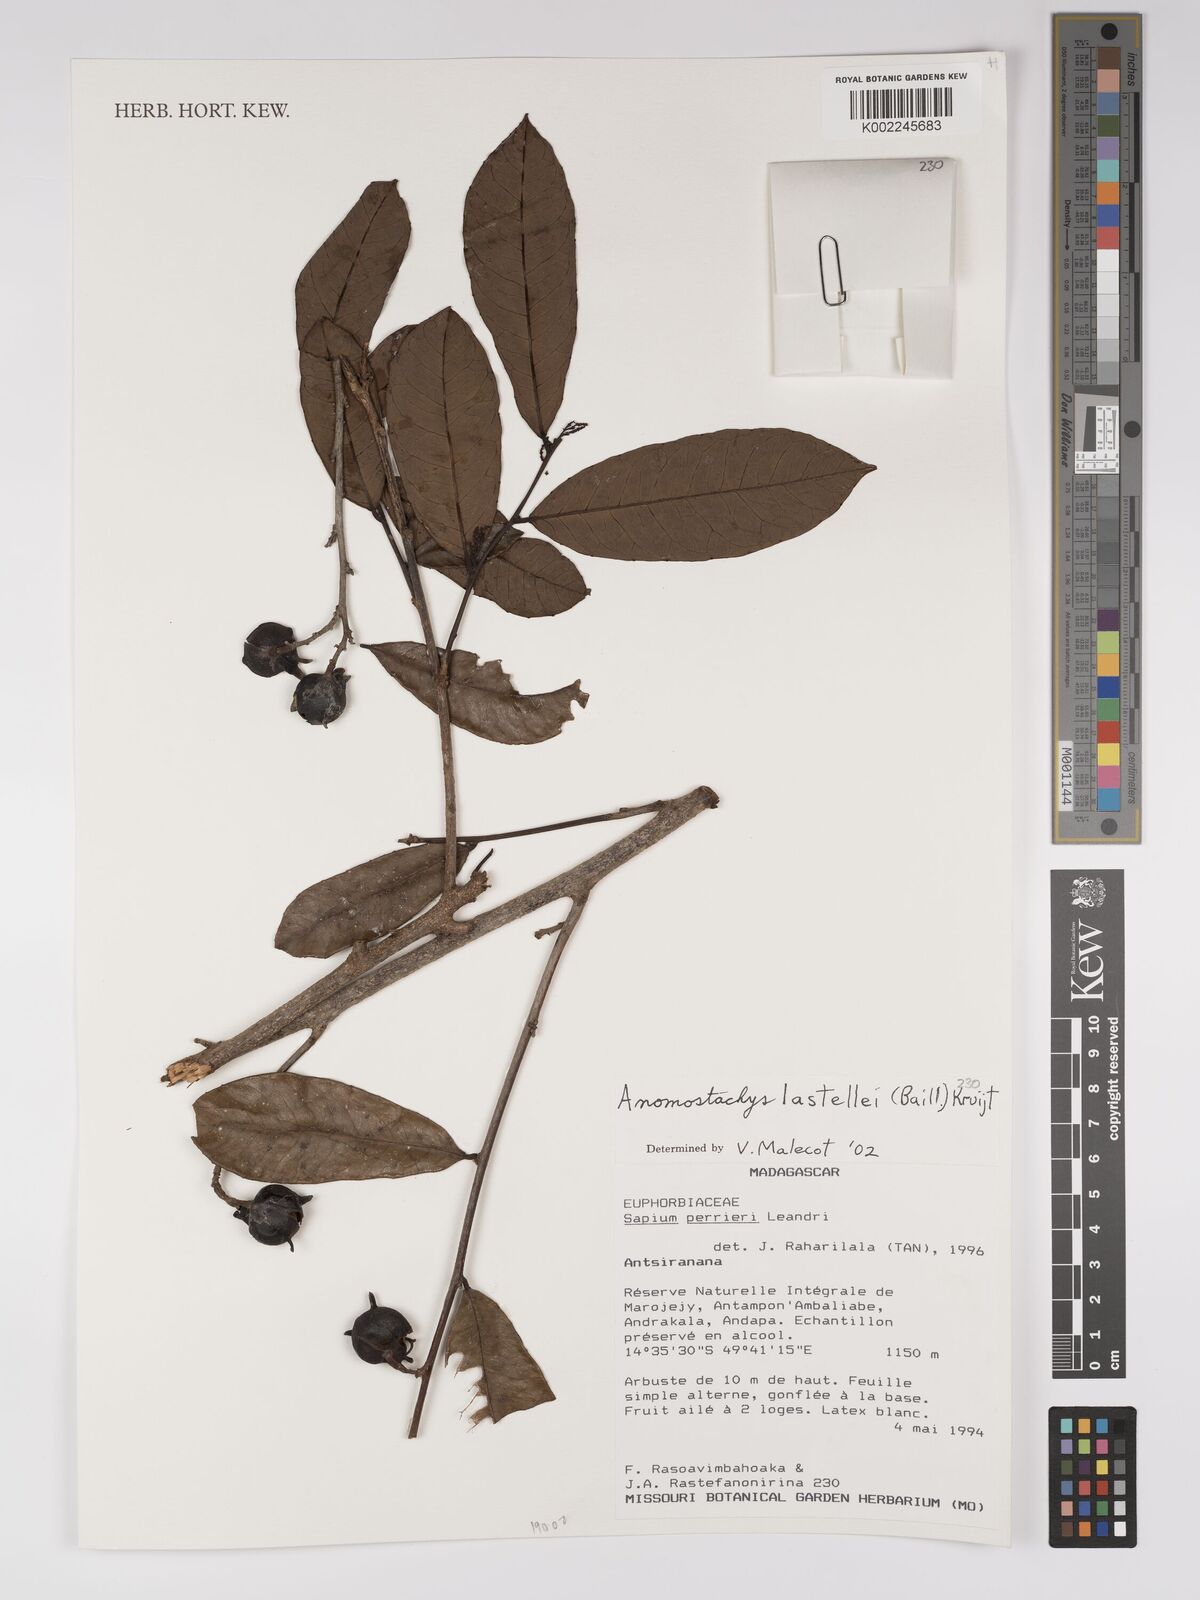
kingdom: Plantae
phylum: Tracheophyta
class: Magnoliopsida
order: Malpighiales
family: Euphorbiaceae
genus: Anomostachys
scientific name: Anomostachys lastellei
